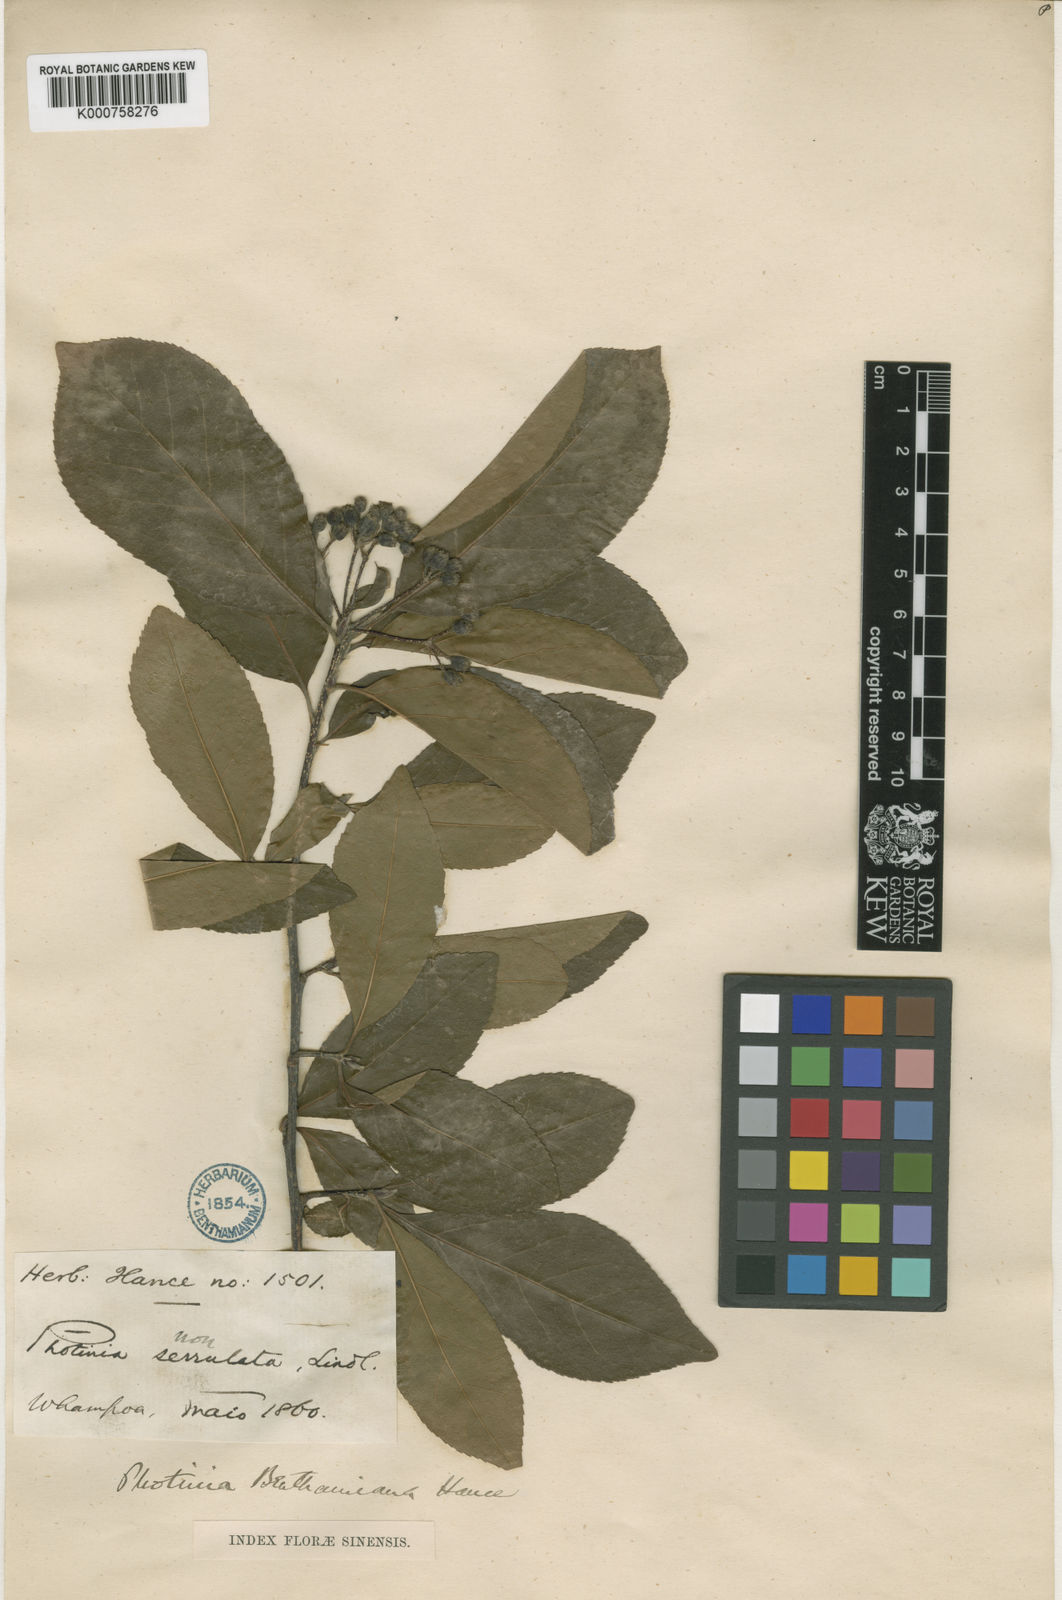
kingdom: Plantae
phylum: Tracheophyta
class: Magnoliopsida
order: Rosales
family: Rosaceae
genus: Pourthiaea
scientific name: Pourthiaea benthamiana
